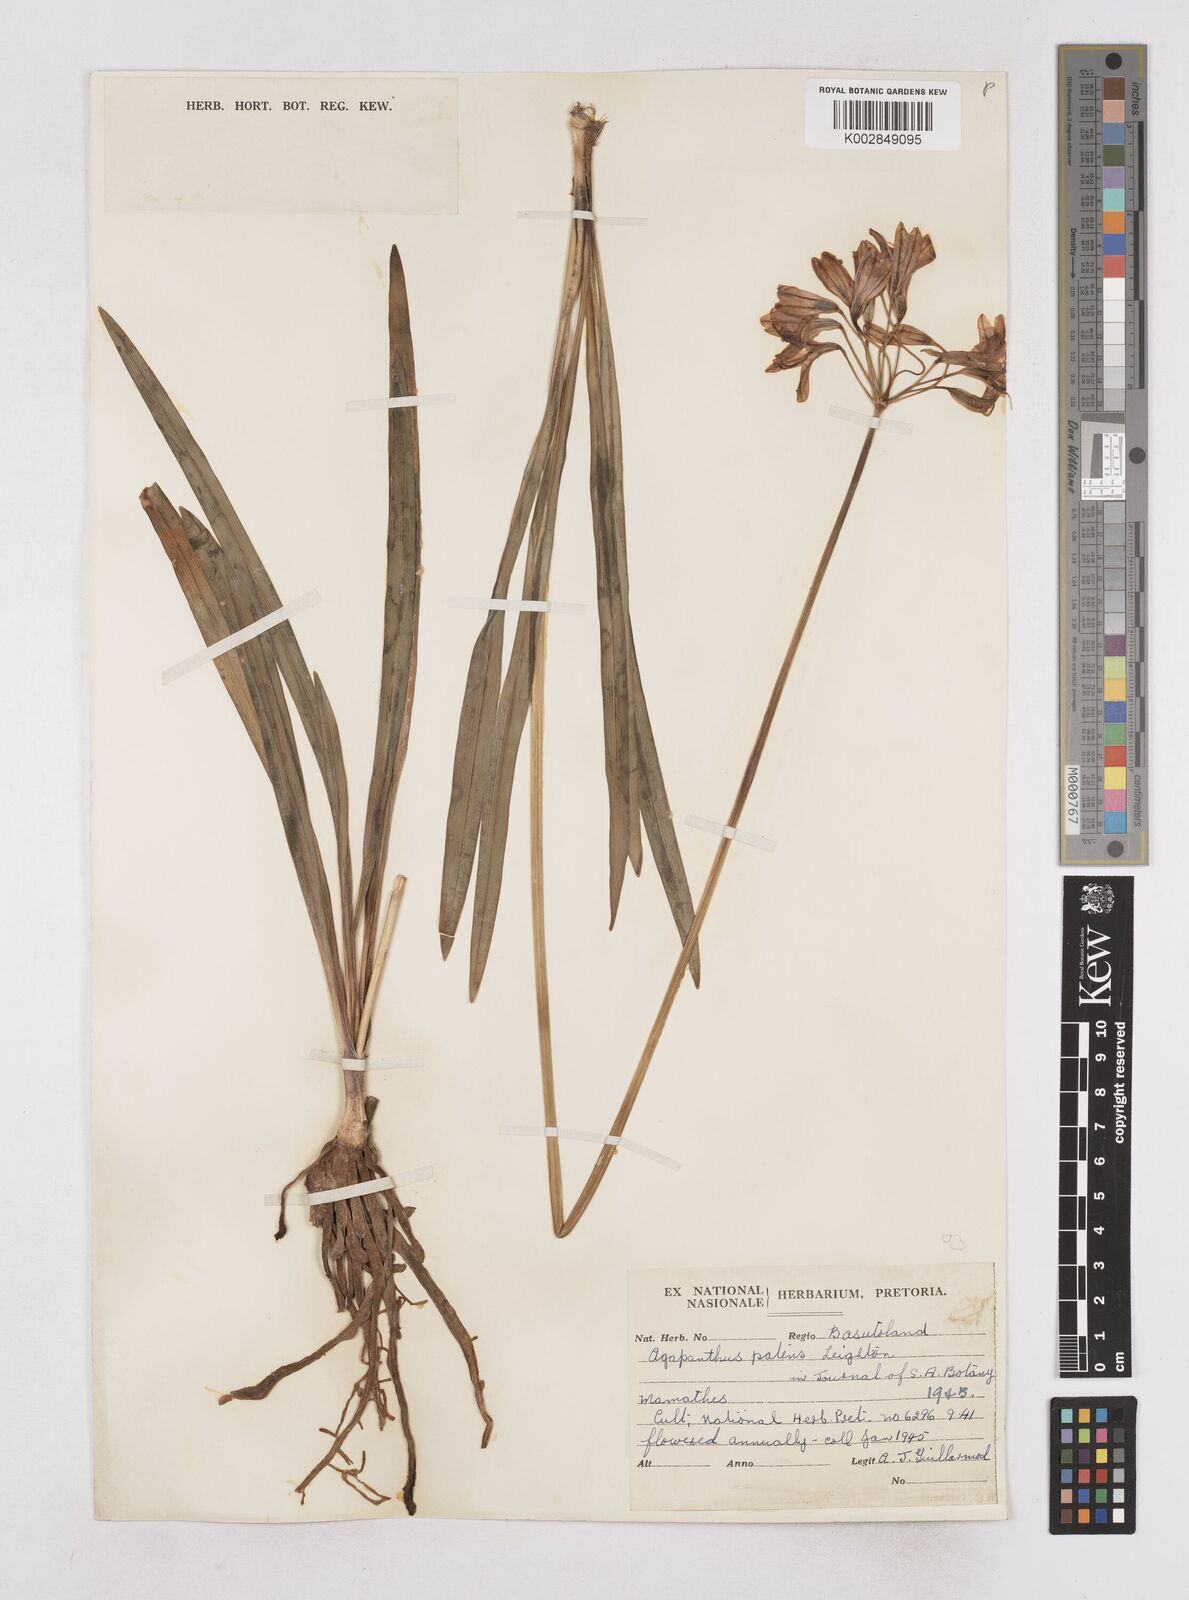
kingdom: Plantae
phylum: Tracheophyta
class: Liliopsida
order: Asparagales
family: Amaryllidaceae
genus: Agapanthus
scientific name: Agapanthus campanulatus
